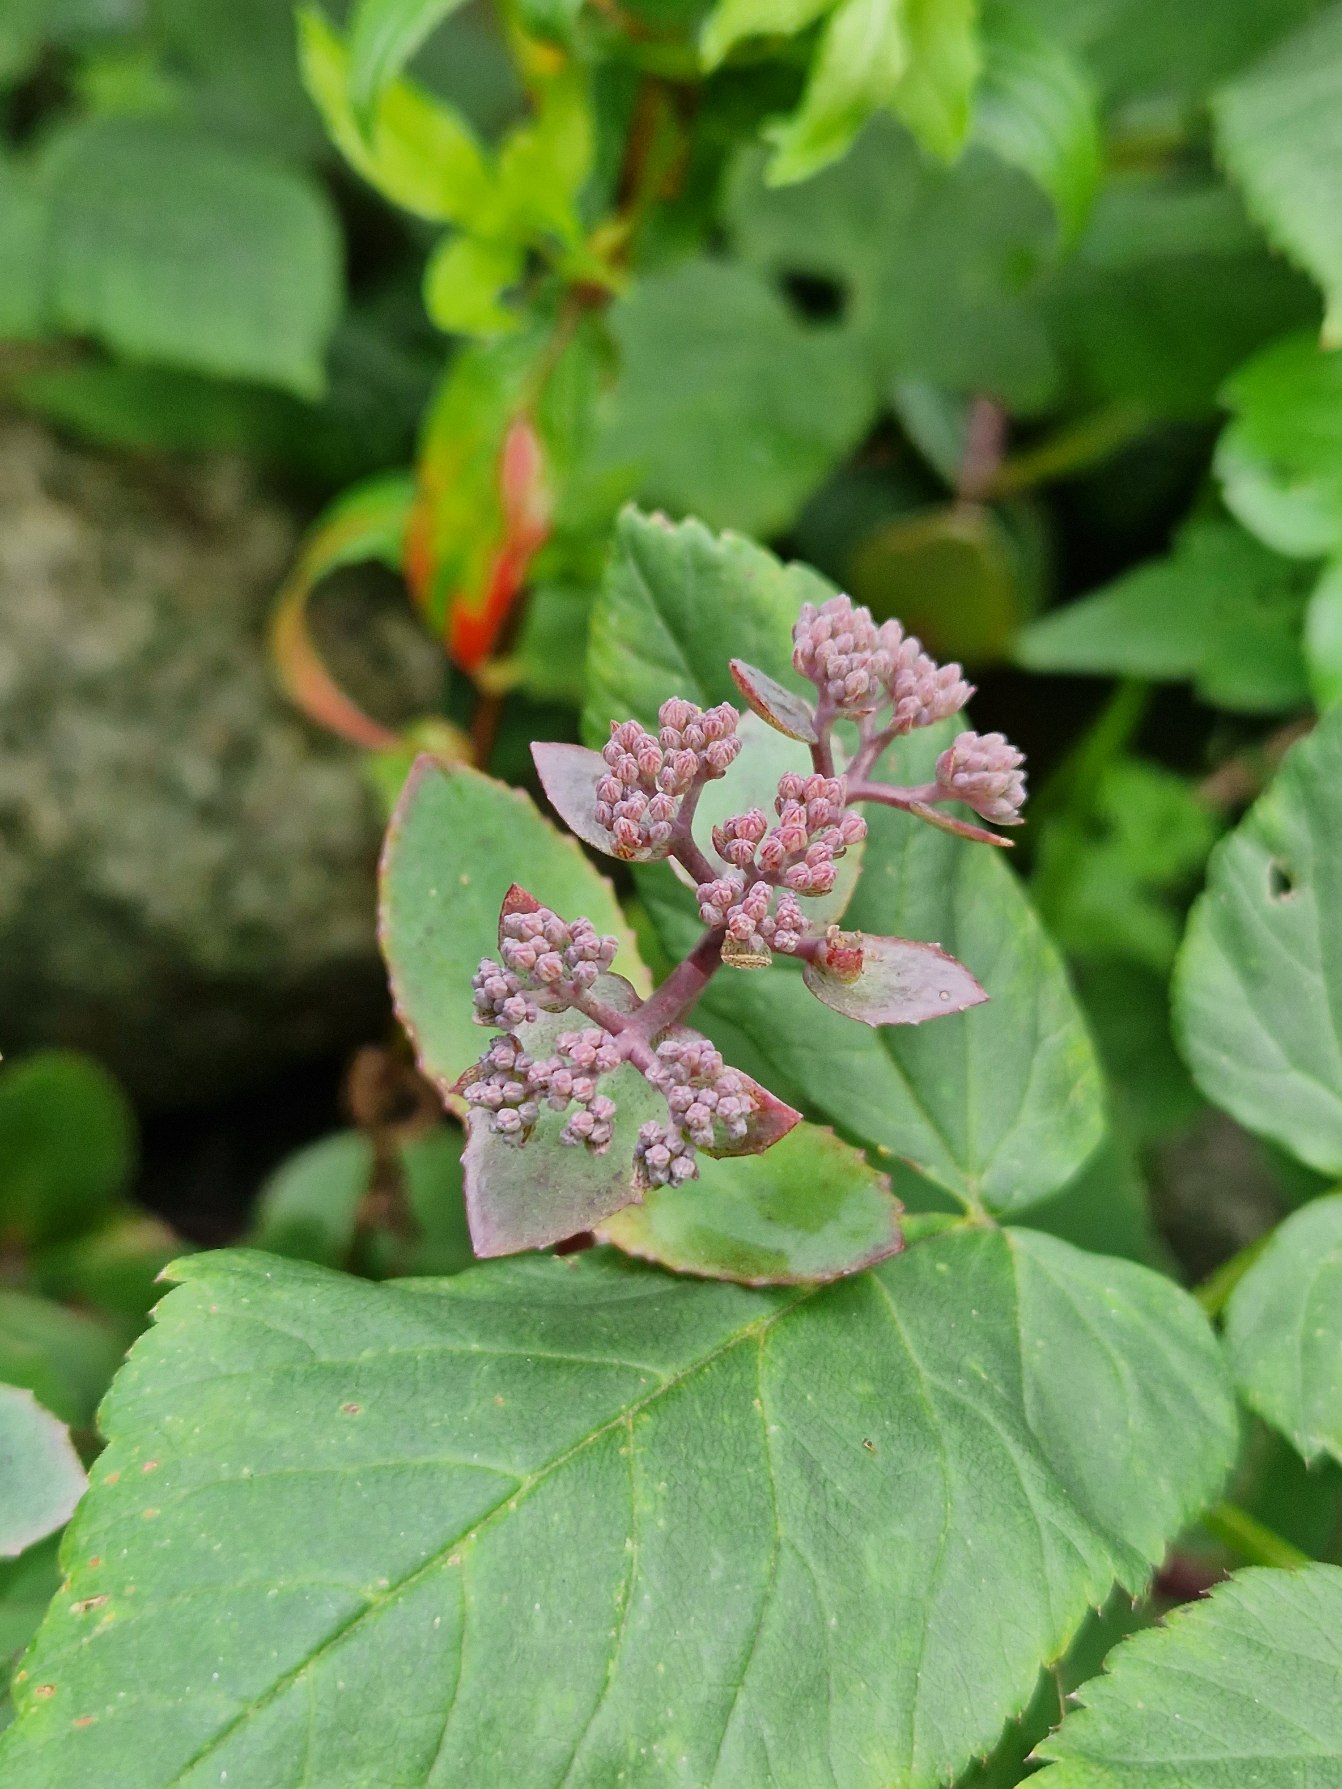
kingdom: Plantae
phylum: Tracheophyta
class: Magnoliopsida
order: Saxifragales
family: Crassulaceae
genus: Hylotelephium
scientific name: Hylotelephium
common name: Sankthansurtslægten
